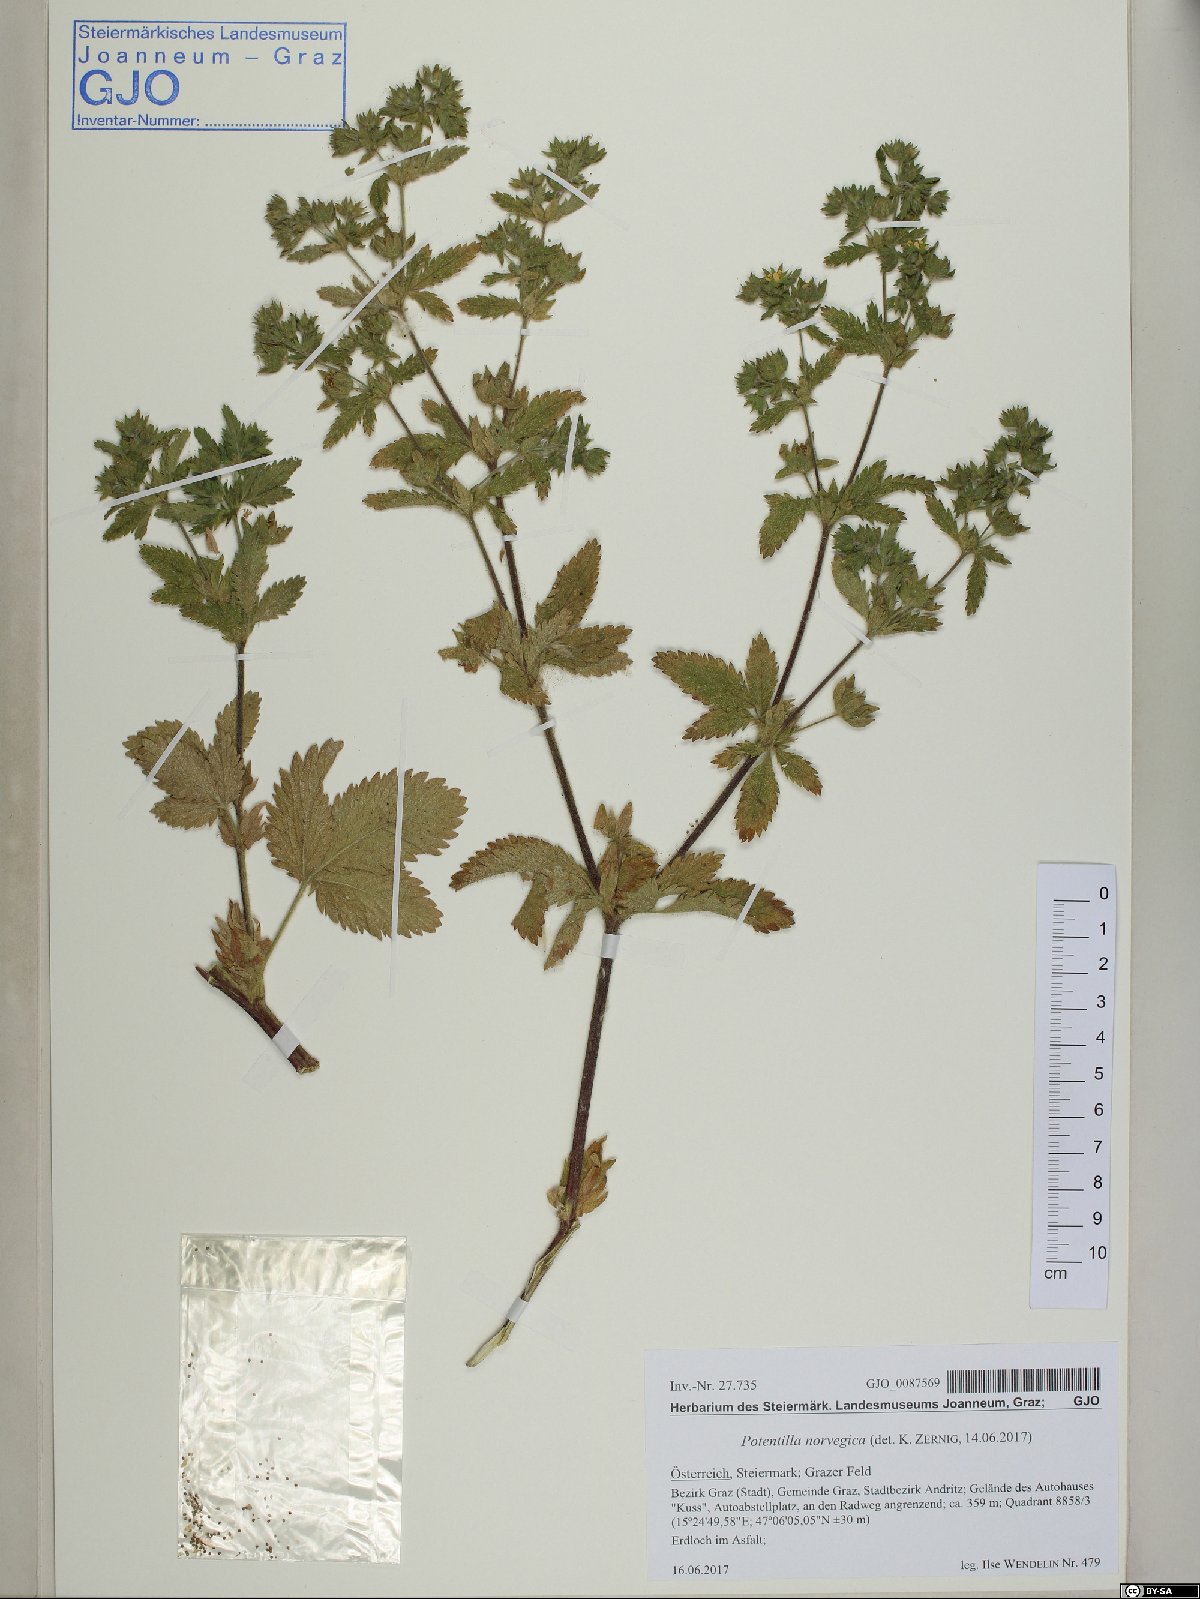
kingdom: Plantae
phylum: Tracheophyta
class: Magnoliopsida
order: Rosales
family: Rosaceae
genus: Potentilla
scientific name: Potentilla norvegica
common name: Ternate-leaved cinquefoil
